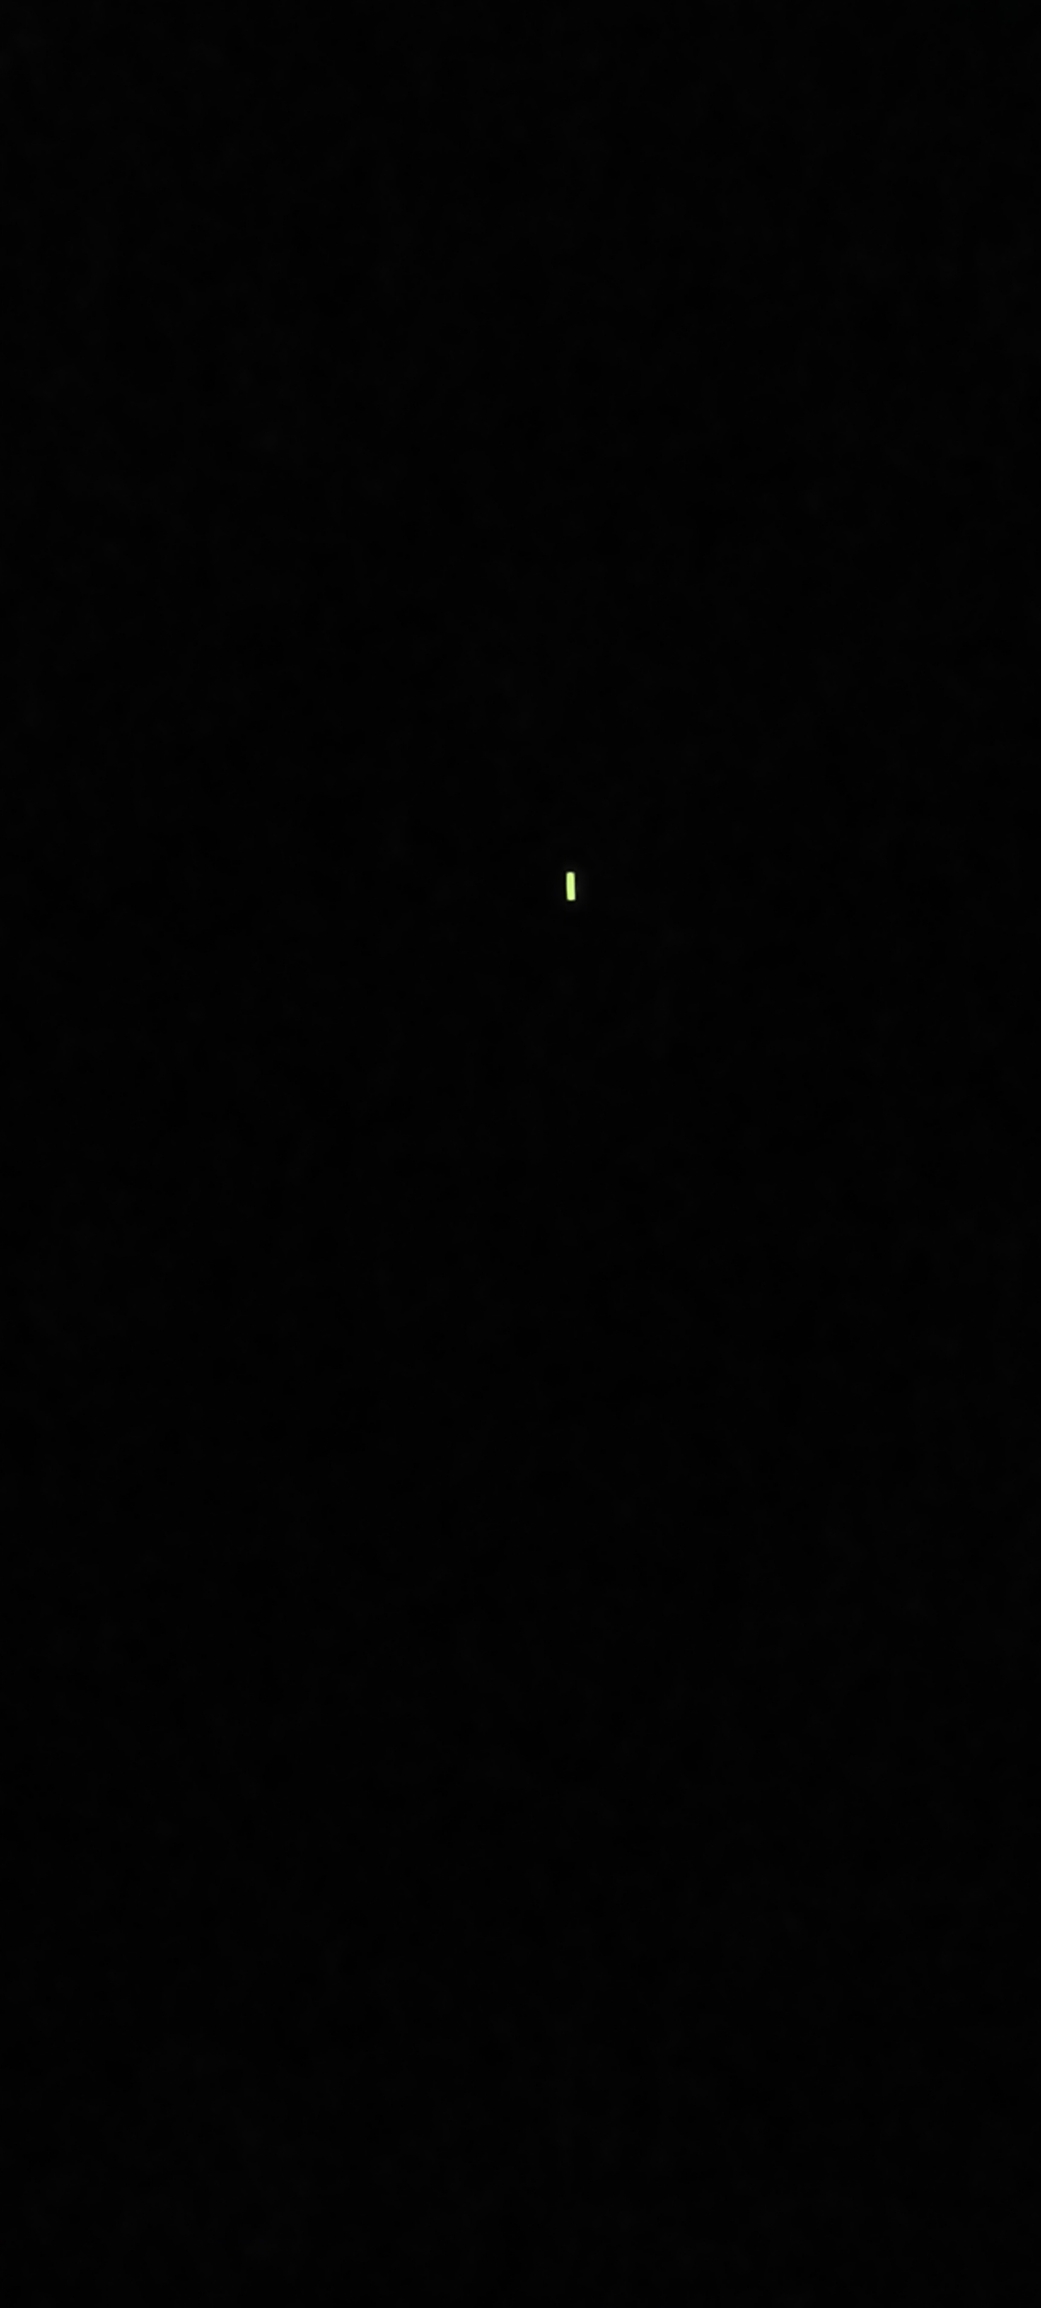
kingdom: Animalia
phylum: Arthropoda
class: Insecta
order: Coleoptera
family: Lampyridae
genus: Lampyris
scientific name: Lampyris noctiluca
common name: Sankthansorm
